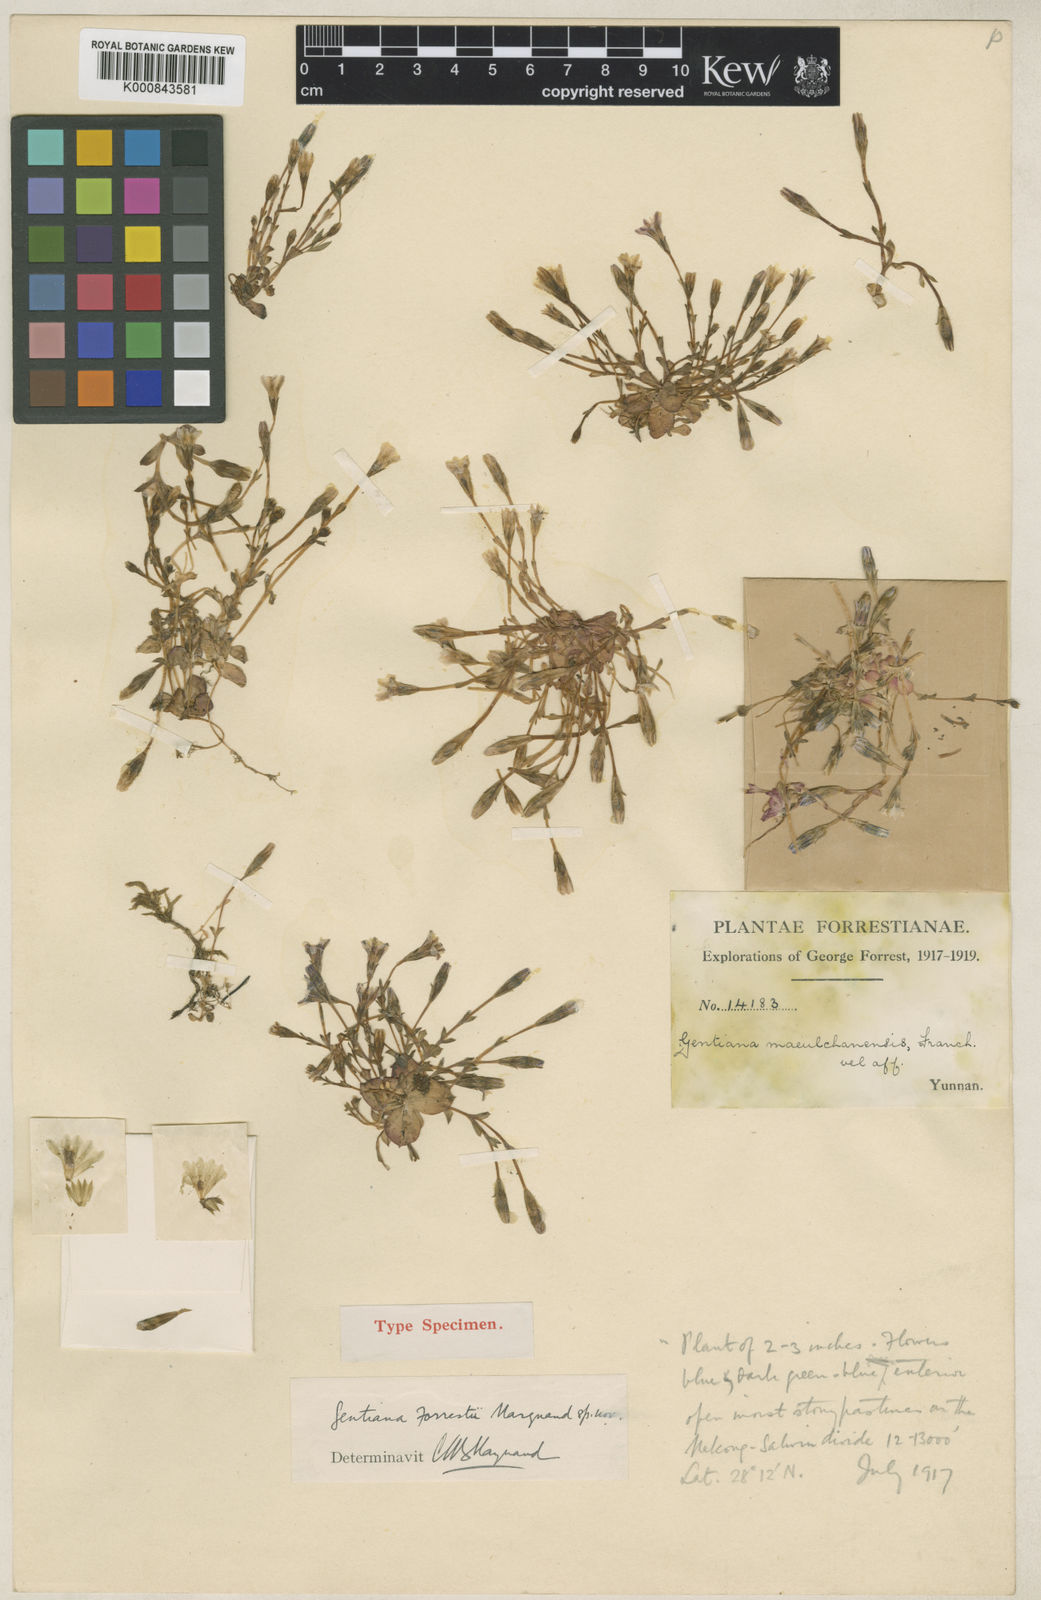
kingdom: Plantae
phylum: Tracheophyta
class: Magnoliopsida
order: Gentianales
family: Gentianaceae
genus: Gentiana
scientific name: Gentiana forrestii
